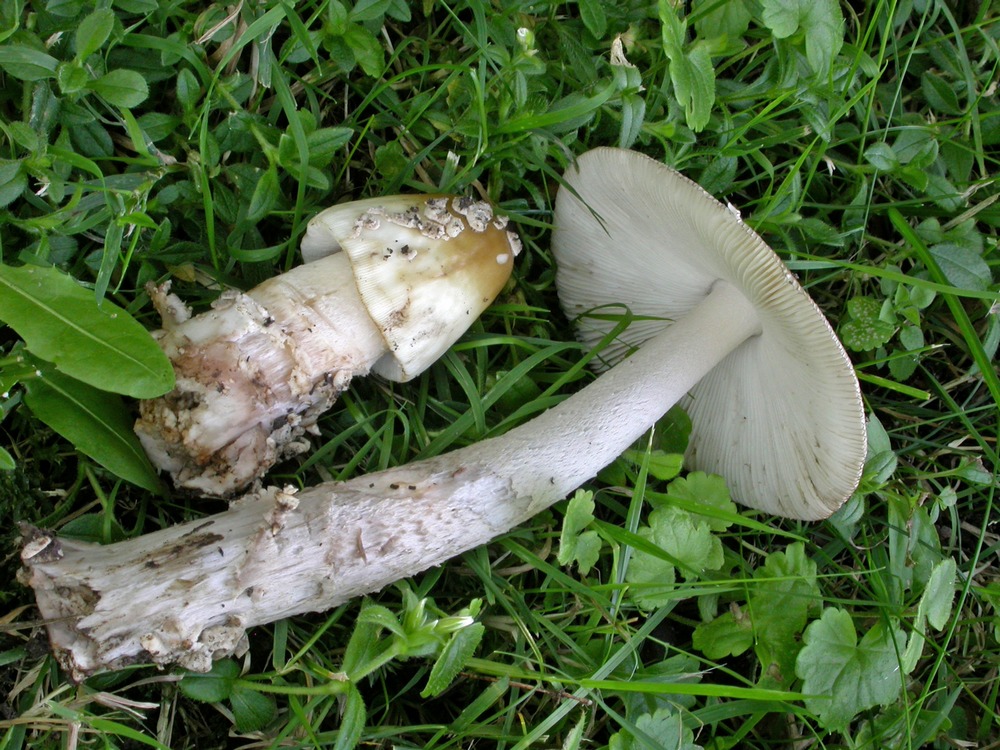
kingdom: Fungi
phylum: Basidiomycota
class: Agaricomycetes
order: Agaricales
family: Amanitaceae
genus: Amanita
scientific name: Amanita ceciliae
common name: stor kam-fluesvamp
